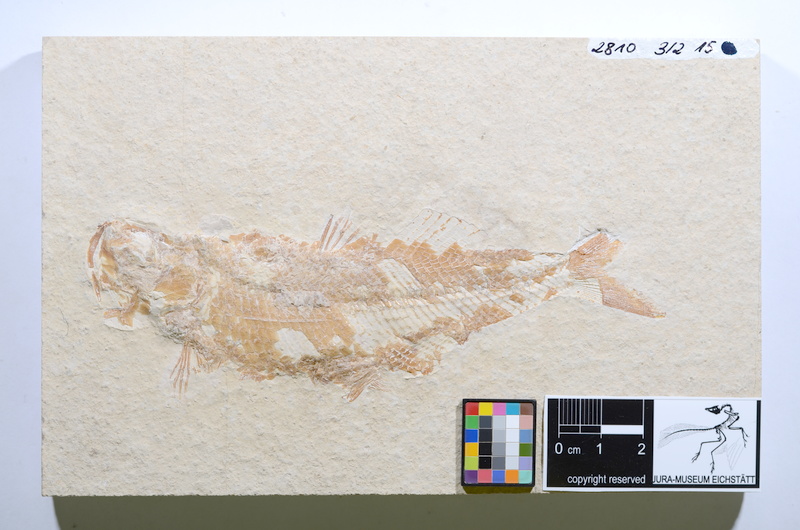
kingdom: Animalia
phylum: Chordata
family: Ankylophoridae
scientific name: Ankylophoridae
